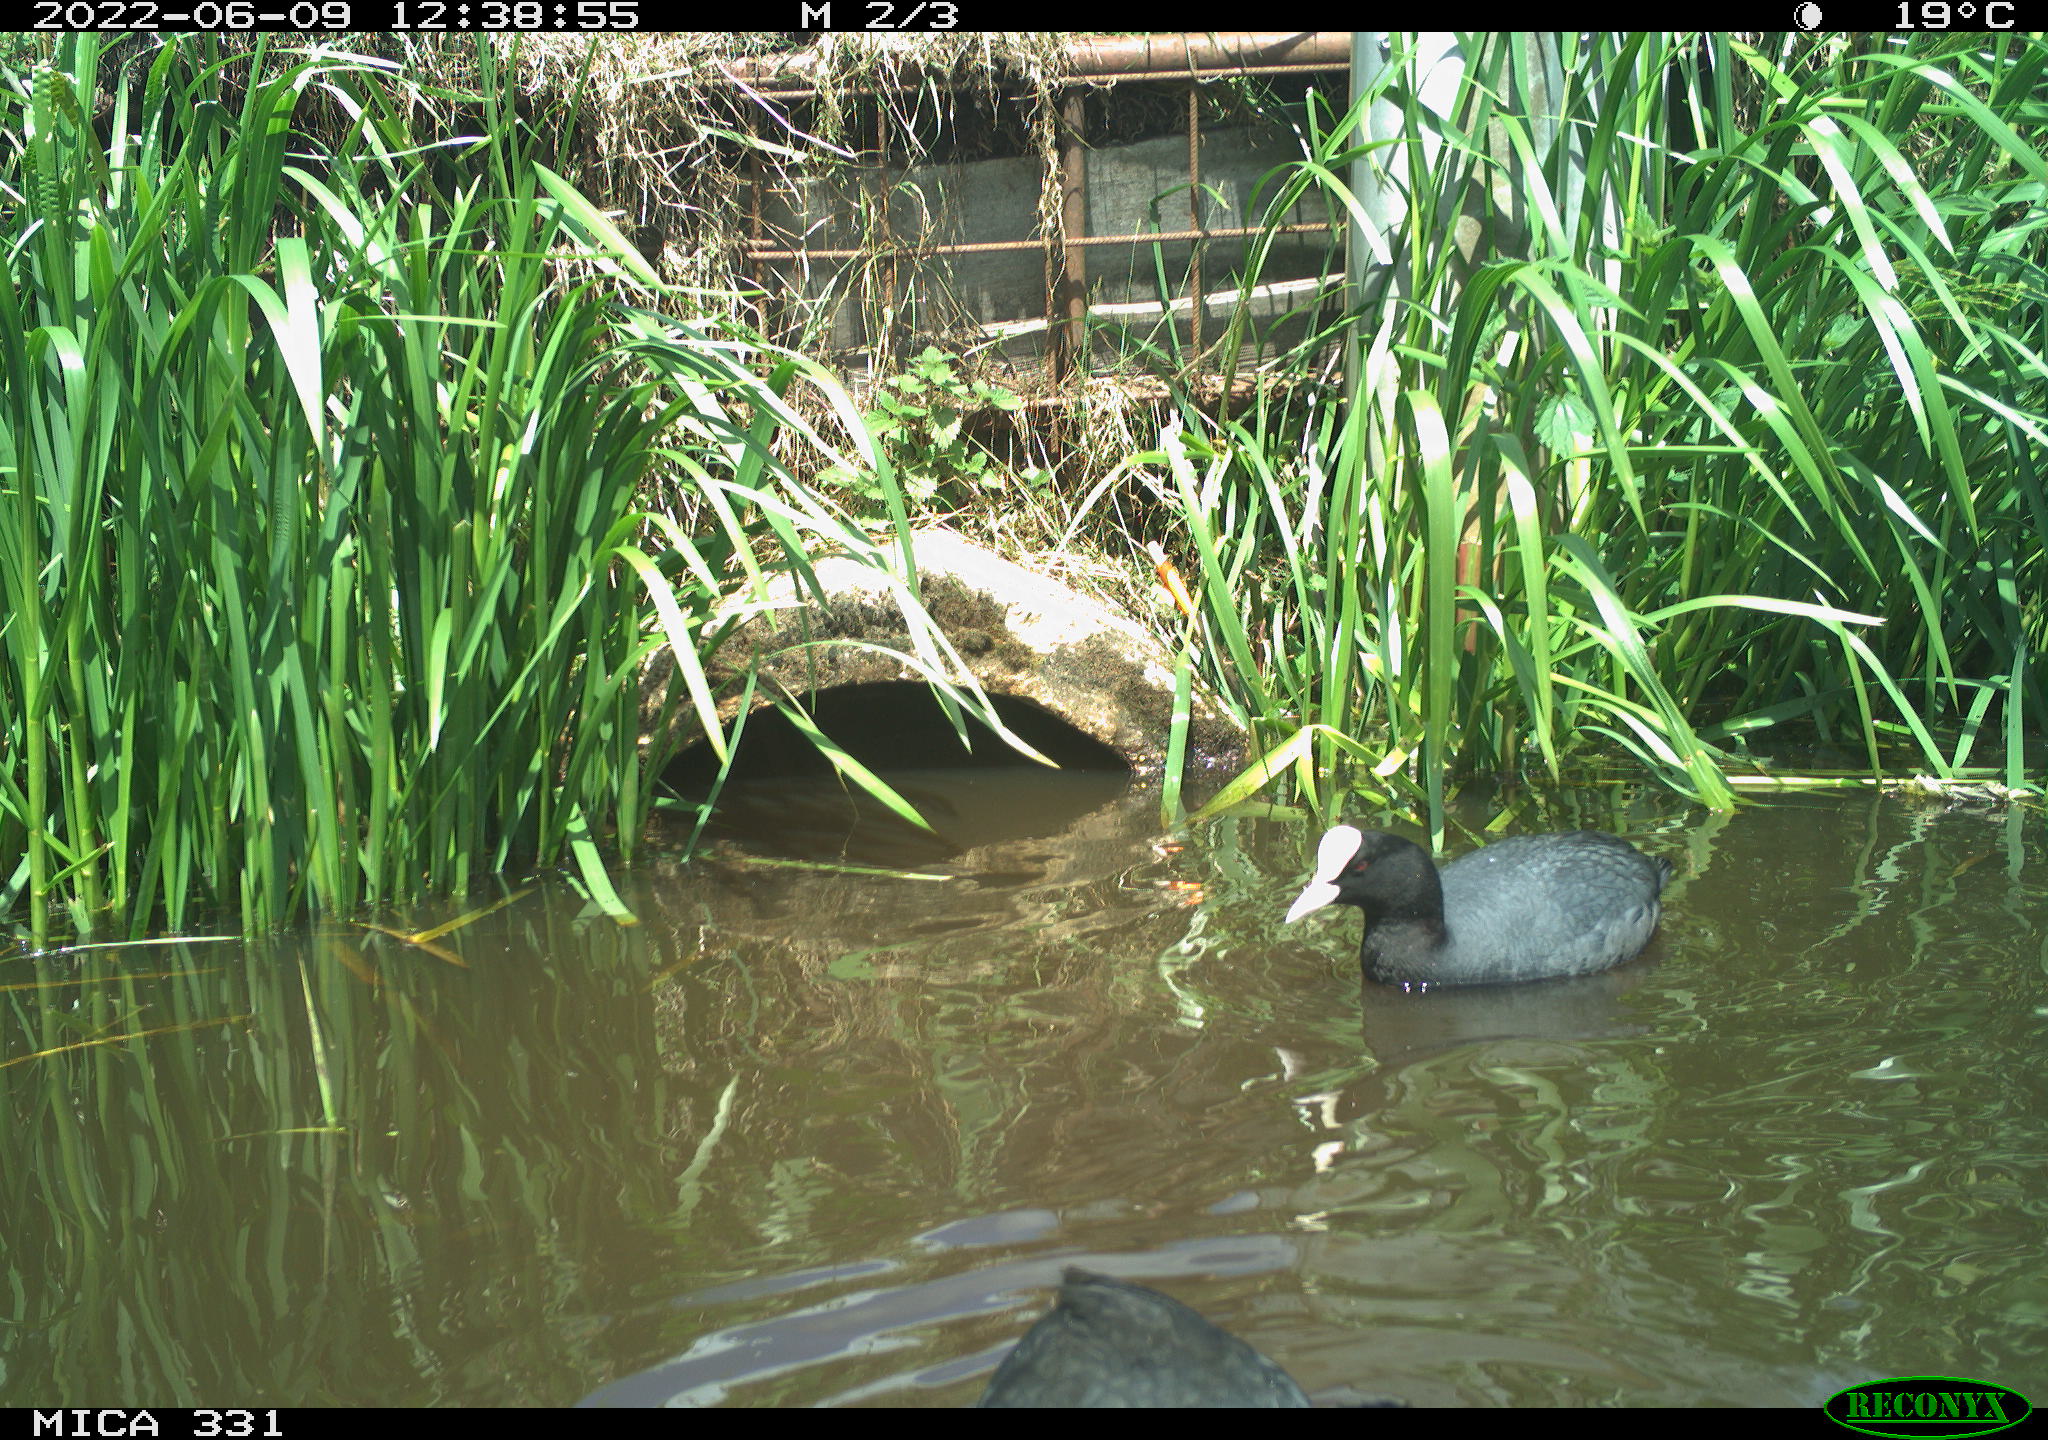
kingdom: Animalia
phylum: Chordata
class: Aves
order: Gruiformes
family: Rallidae
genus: Fulica
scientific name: Fulica atra
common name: Eurasian coot
